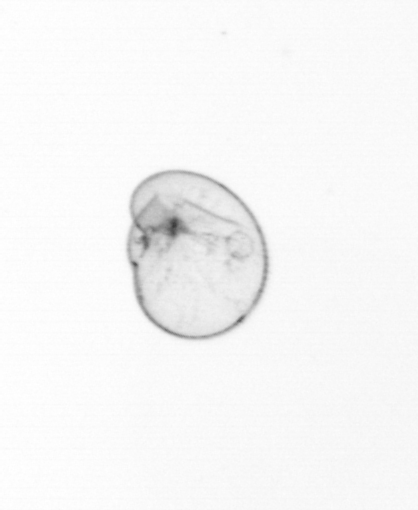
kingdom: Chromista
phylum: Myzozoa
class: Dinophyceae
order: Noctilucales
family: Noctilucaceae
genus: Noctiluca
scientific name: Noctiluca scintillans
